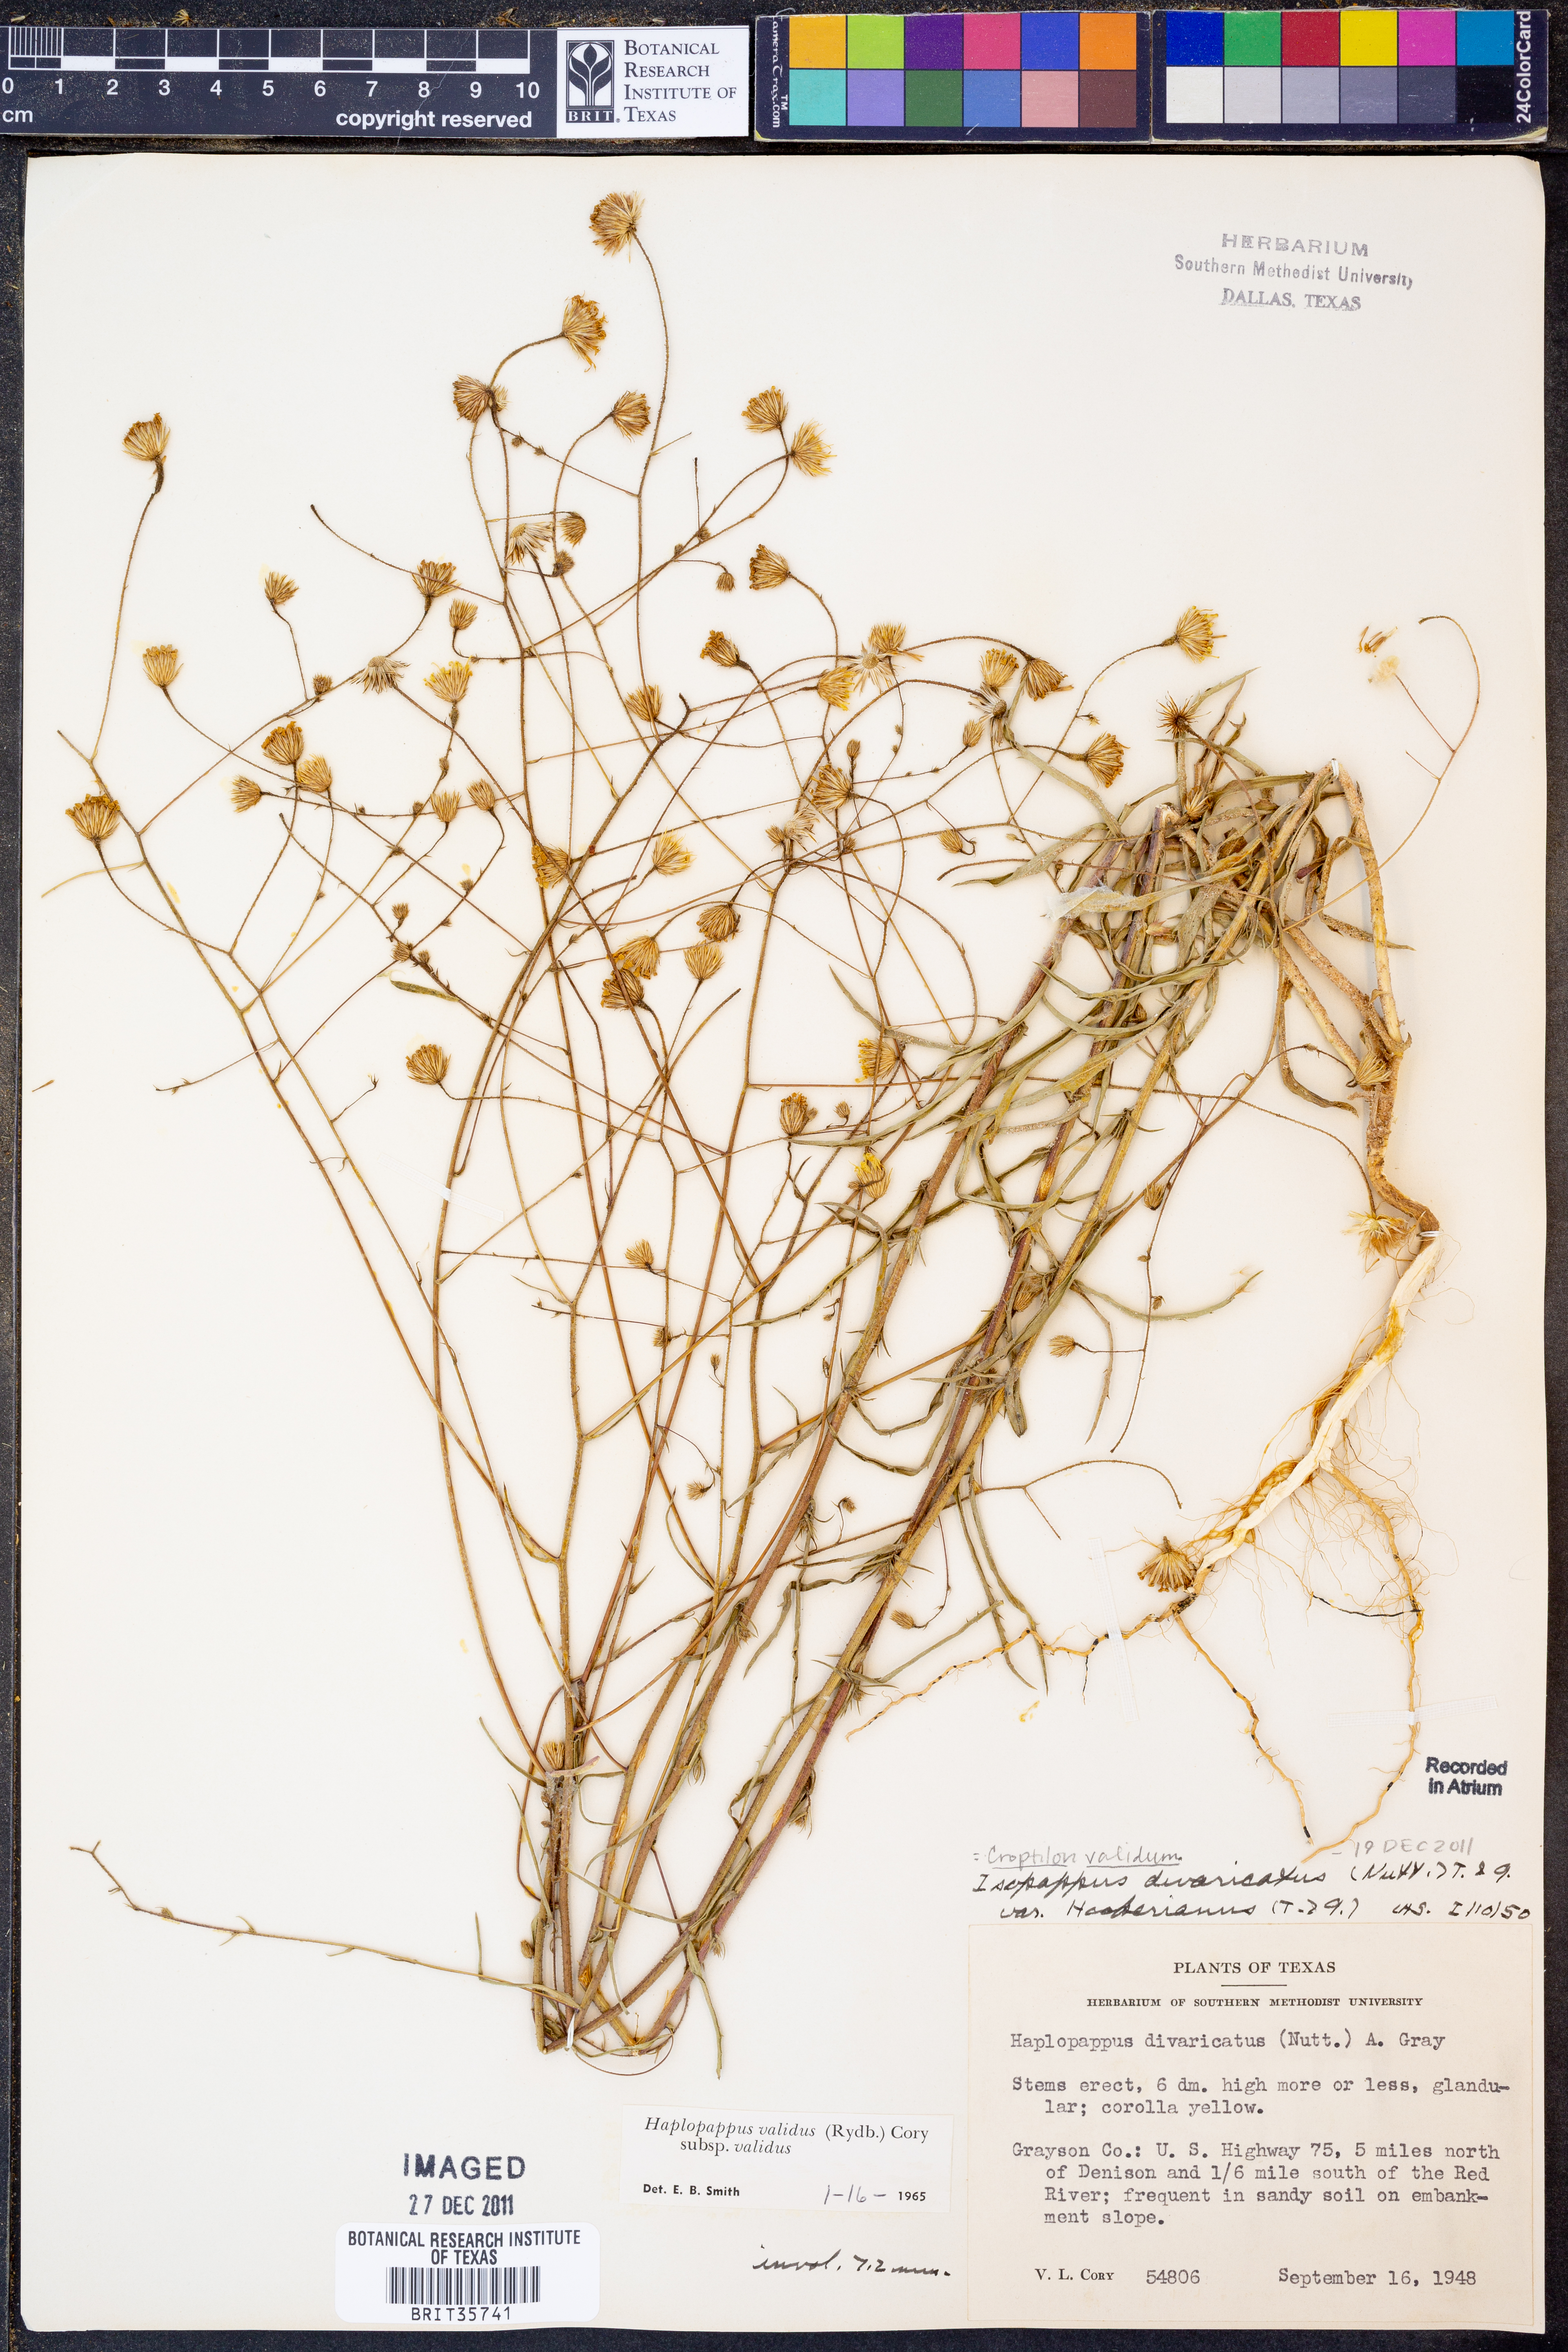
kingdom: Plantae
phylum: Tracheophyta
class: Magnoliopsida
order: Asterales
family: Asteraceae
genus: Croptilon
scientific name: Croptilon hookerianum
